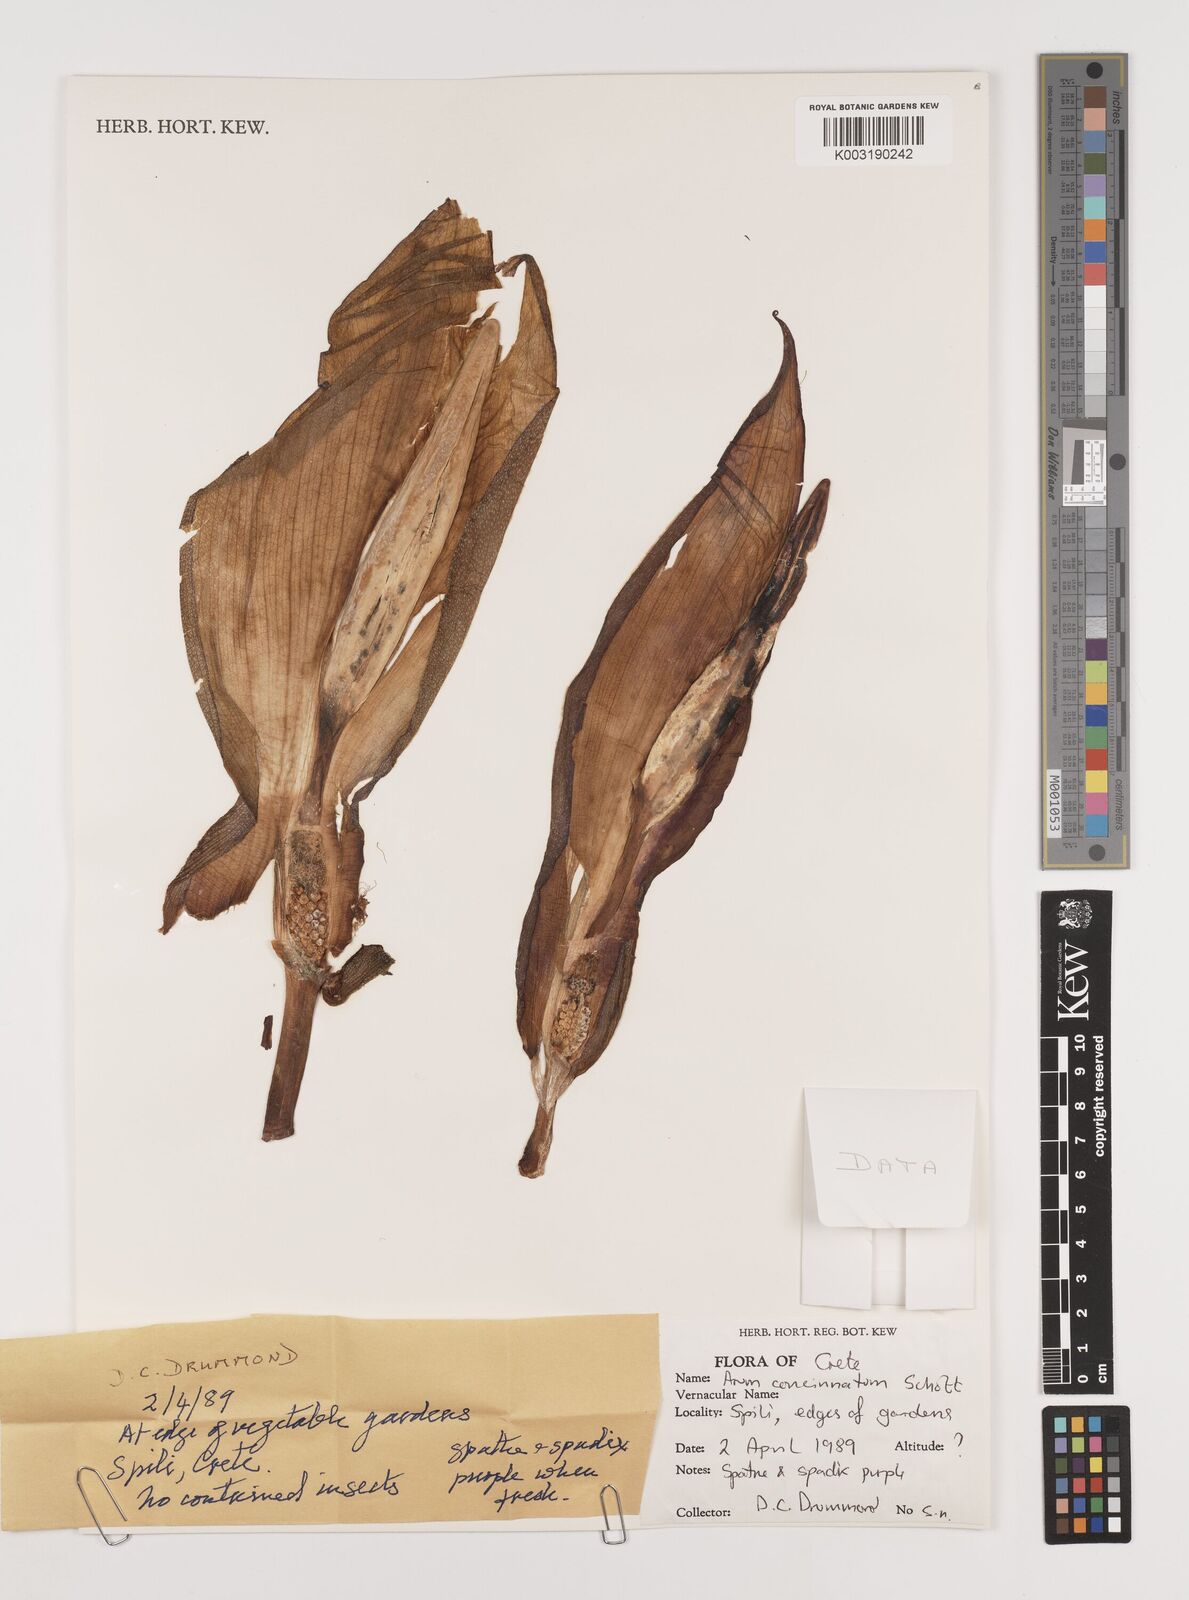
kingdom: Plantae
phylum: Tracheophyta
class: Liliopsida
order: Alismatales
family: Araceae
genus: Arum
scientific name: Arum concinnatum
